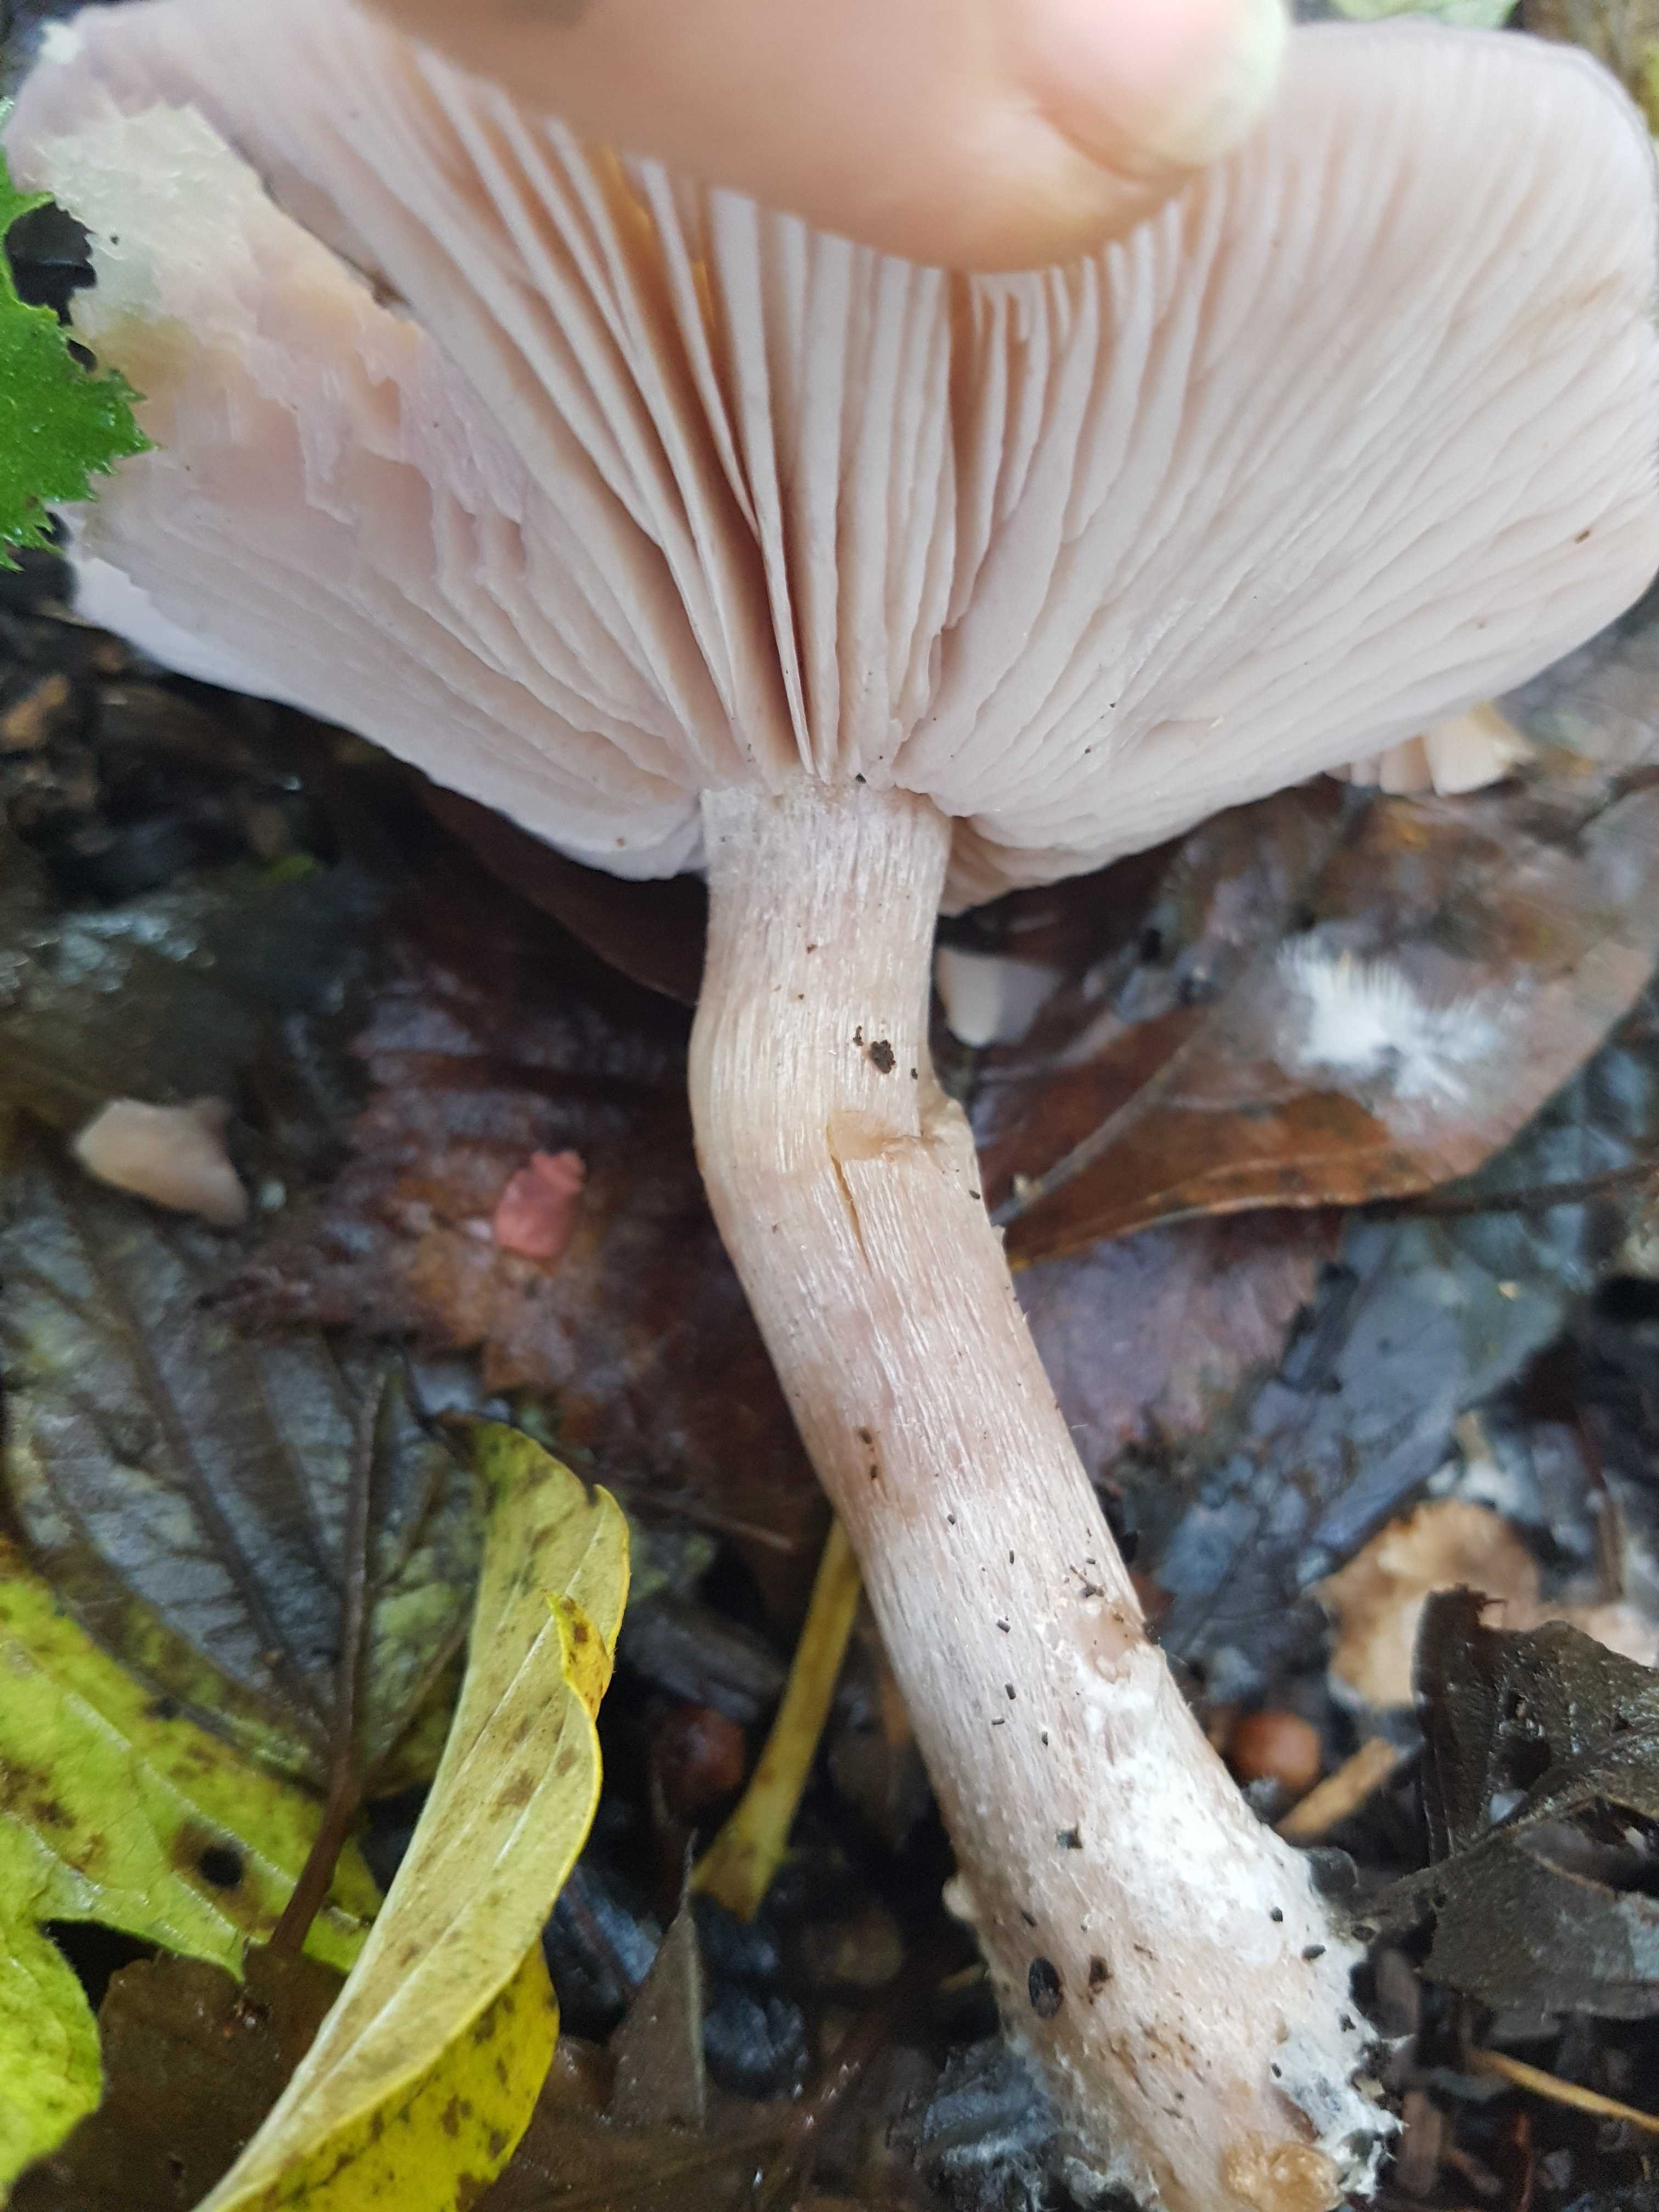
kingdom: Fungi
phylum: Basidiomycota
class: Agaricomycetes
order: Agaricales
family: Tricholomataceae
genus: Lepista
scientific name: Lepista nuda
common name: violet hekseringshat
